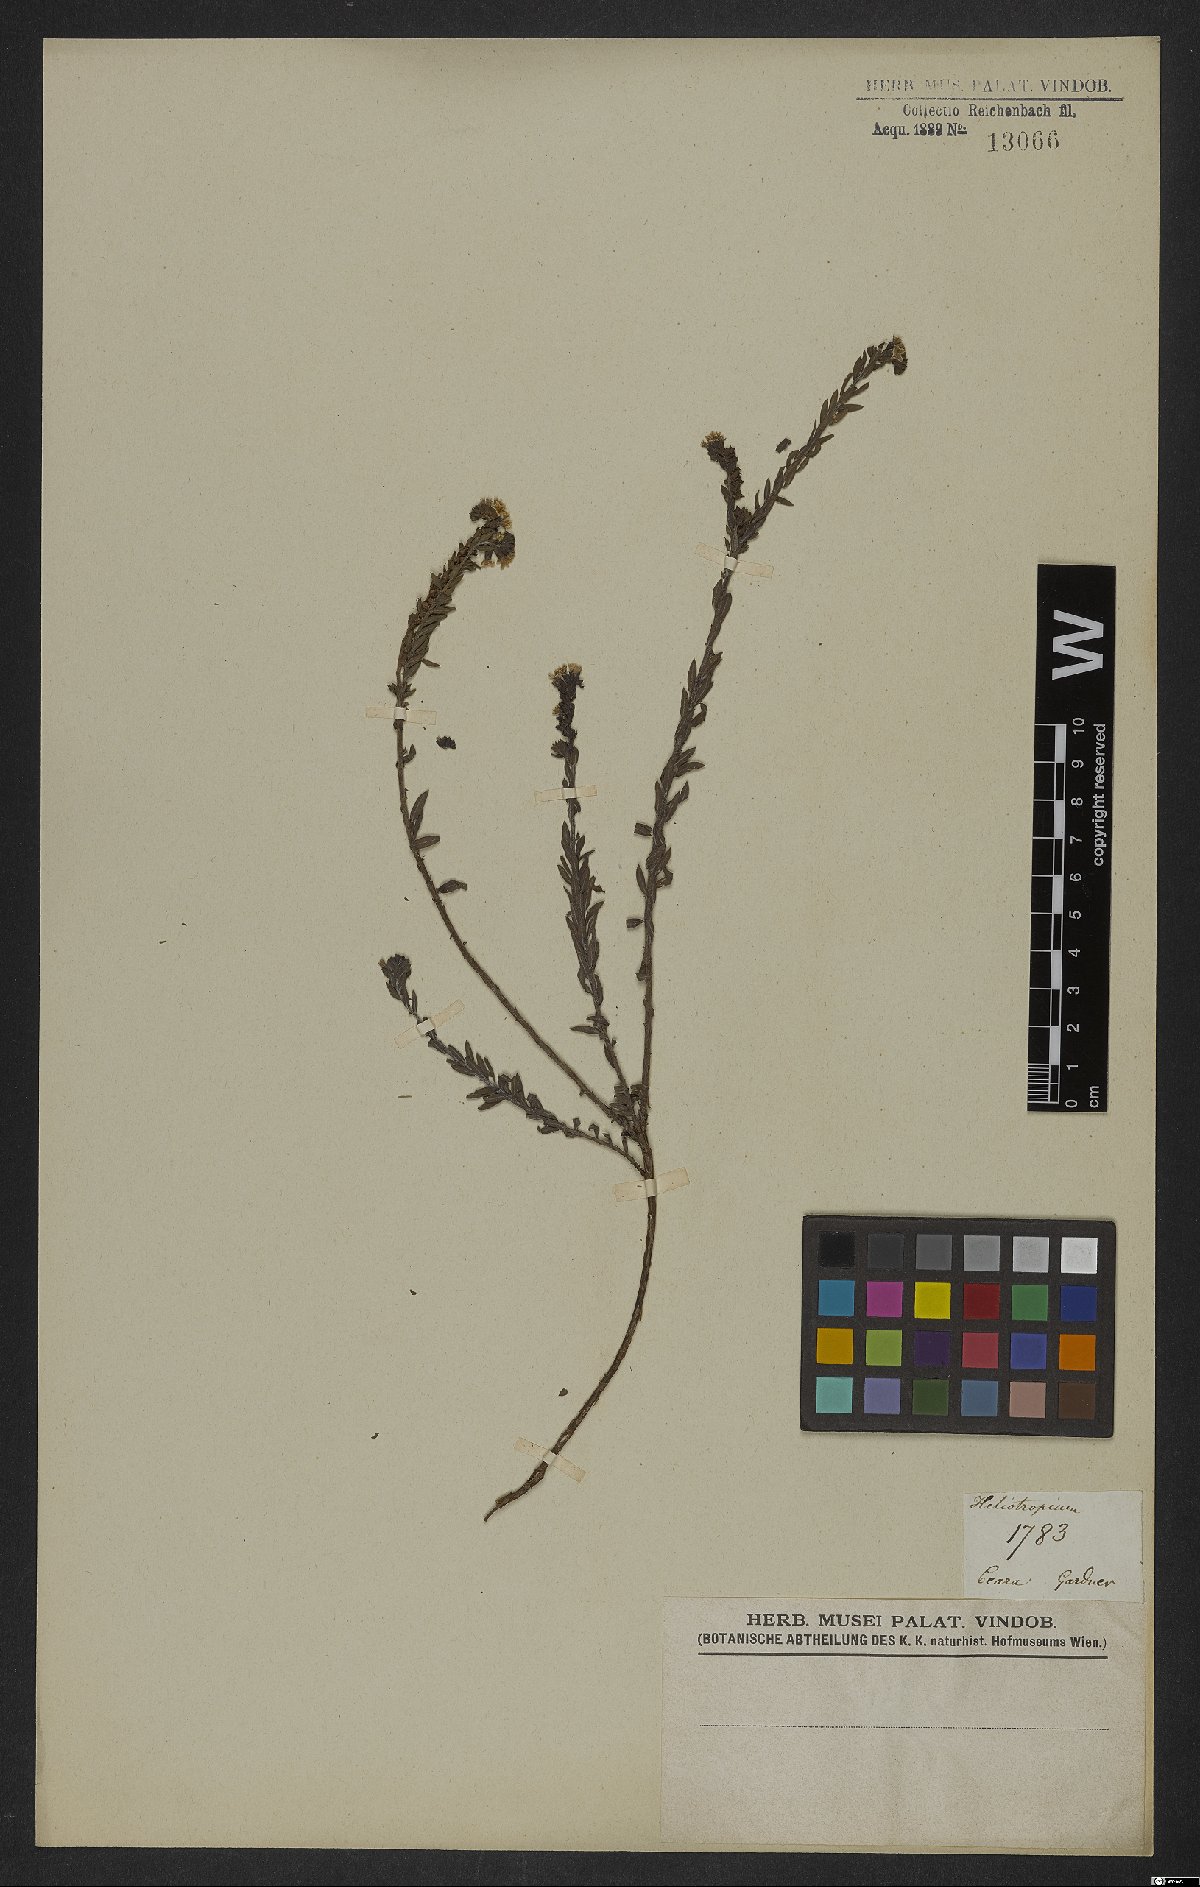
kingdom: Plantae
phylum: Tracheophyta
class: Magnoliopsida
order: Boraginales
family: Heliotropiaceae
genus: Heliotropium
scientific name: Heliotropium
